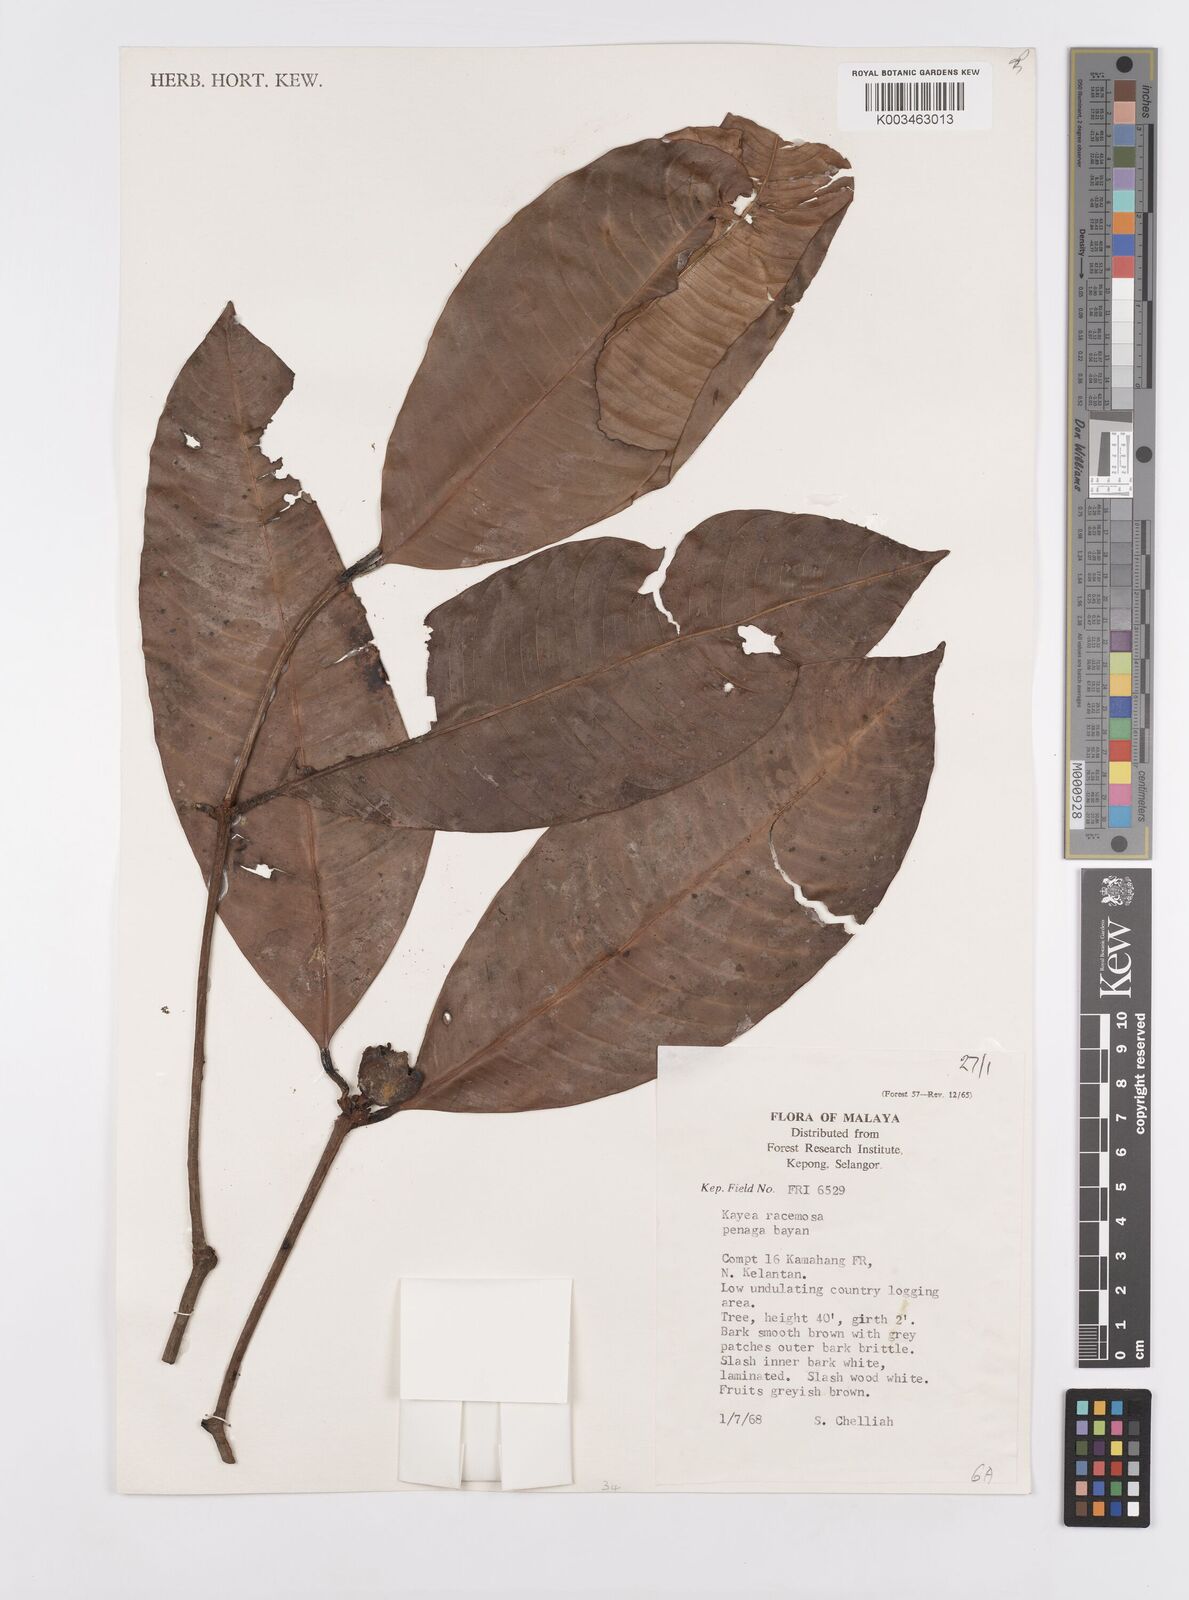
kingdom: Plantae
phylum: Tracheophyta
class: Magnoliopsida
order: Malpighiales
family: Calophyllaceae
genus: Kayea
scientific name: Kayea racemosa
